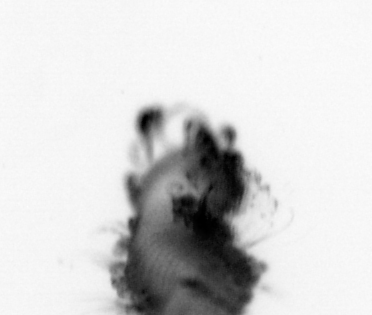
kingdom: Animalia
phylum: Annelida
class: Polychaeta
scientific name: Polychaeta
